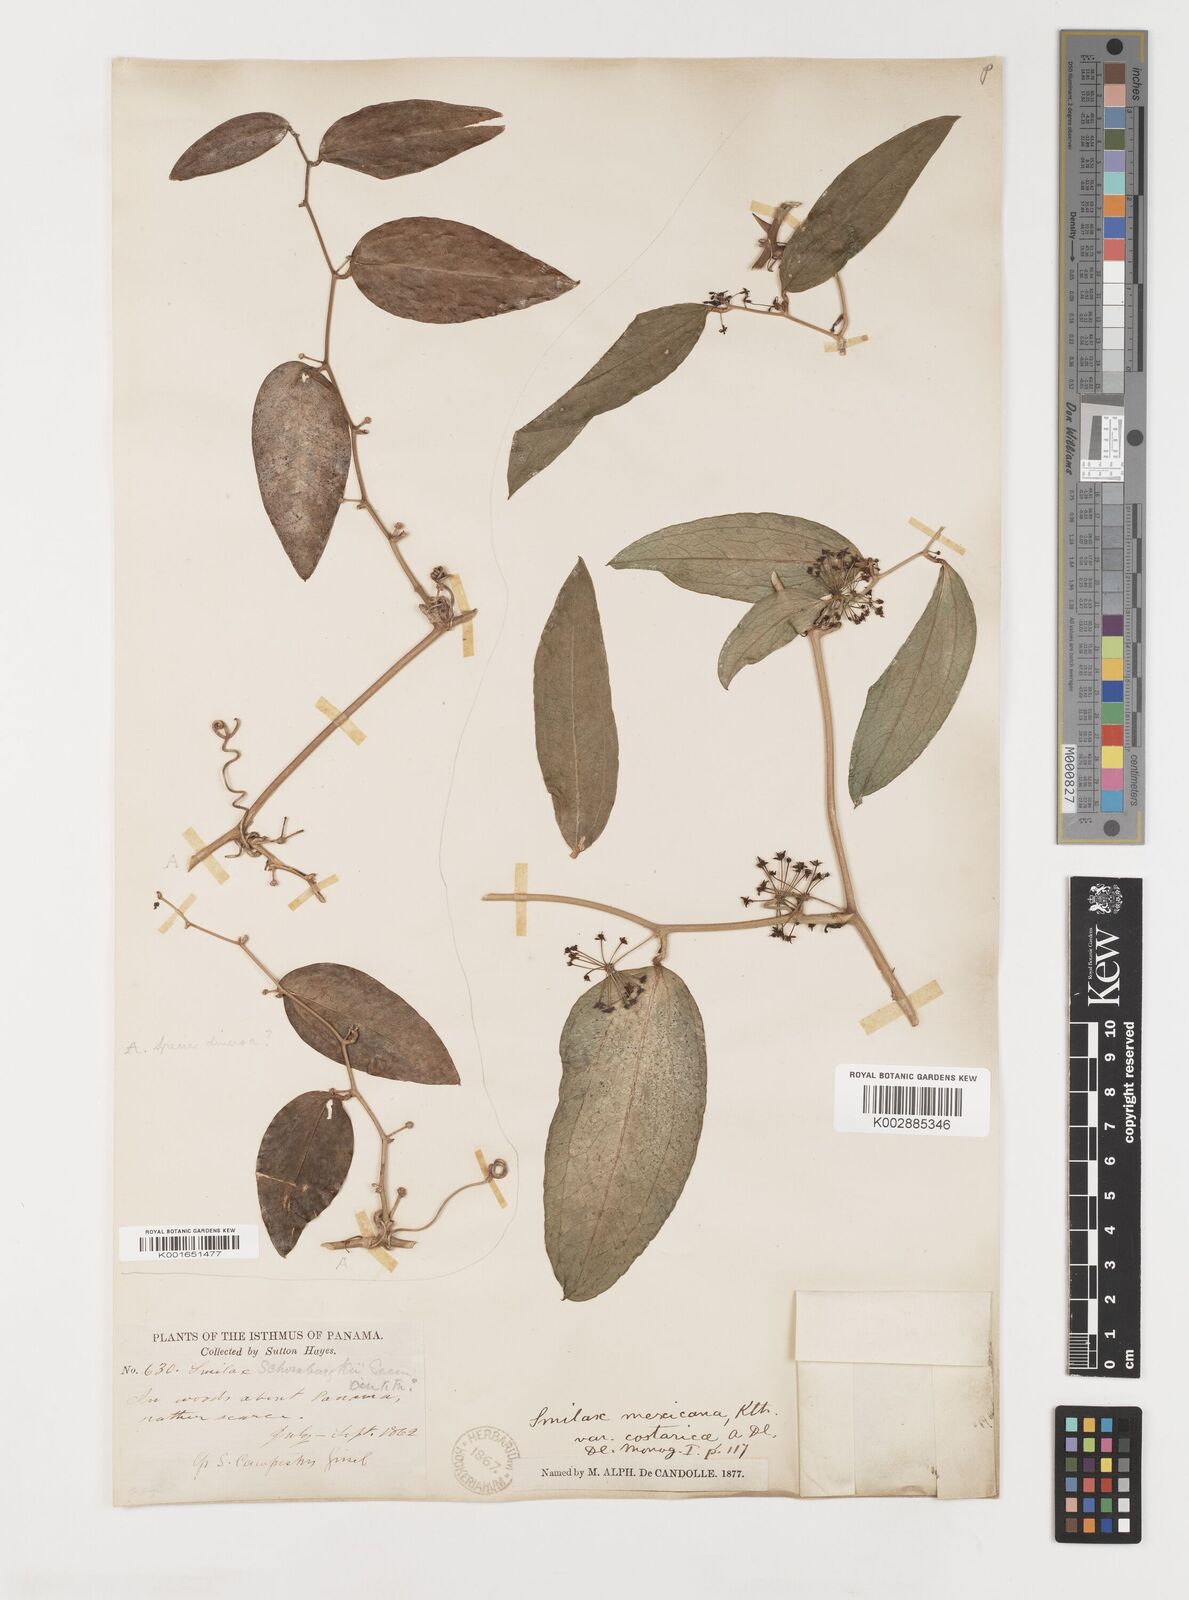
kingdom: Plantae
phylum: Tracheophyta
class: Liliopsida
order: Liliales
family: Smilacaceae
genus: Smilax
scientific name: Smilax spinosa
